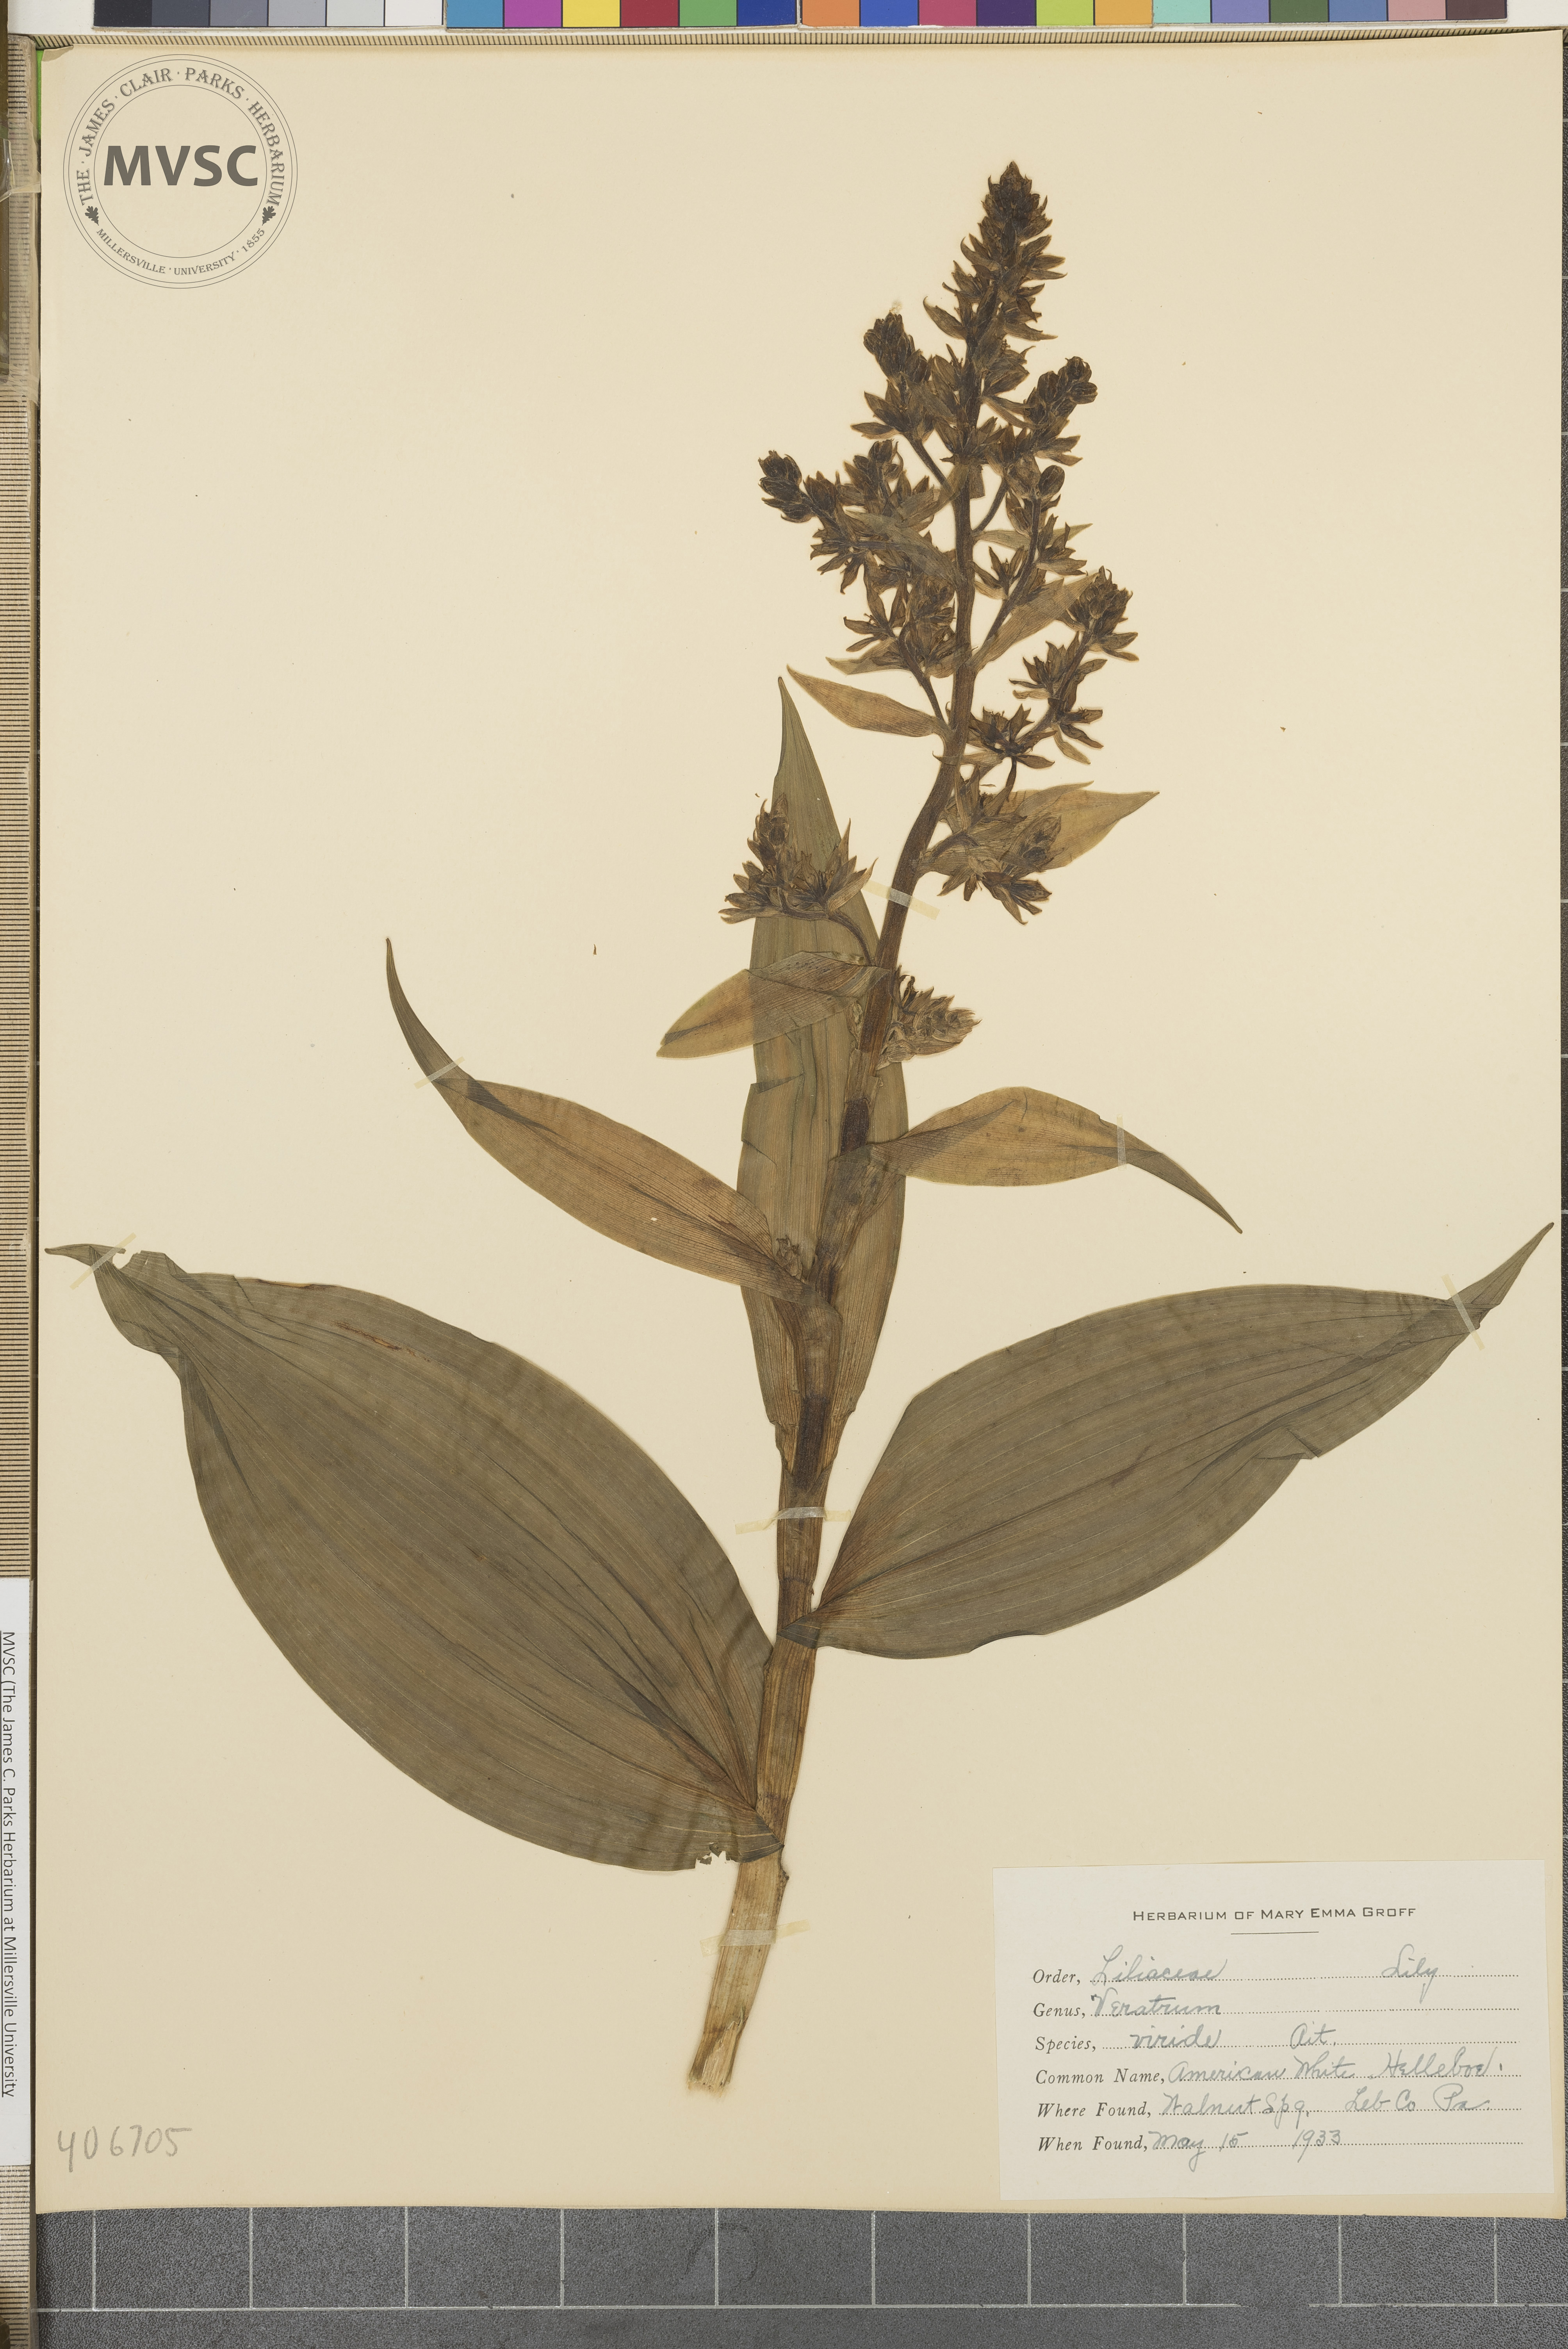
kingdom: Plantae
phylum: Tracheophyta
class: Liliopsida
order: Liliales
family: Melanthiaceae
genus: Veratrum
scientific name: Veratrum viride
